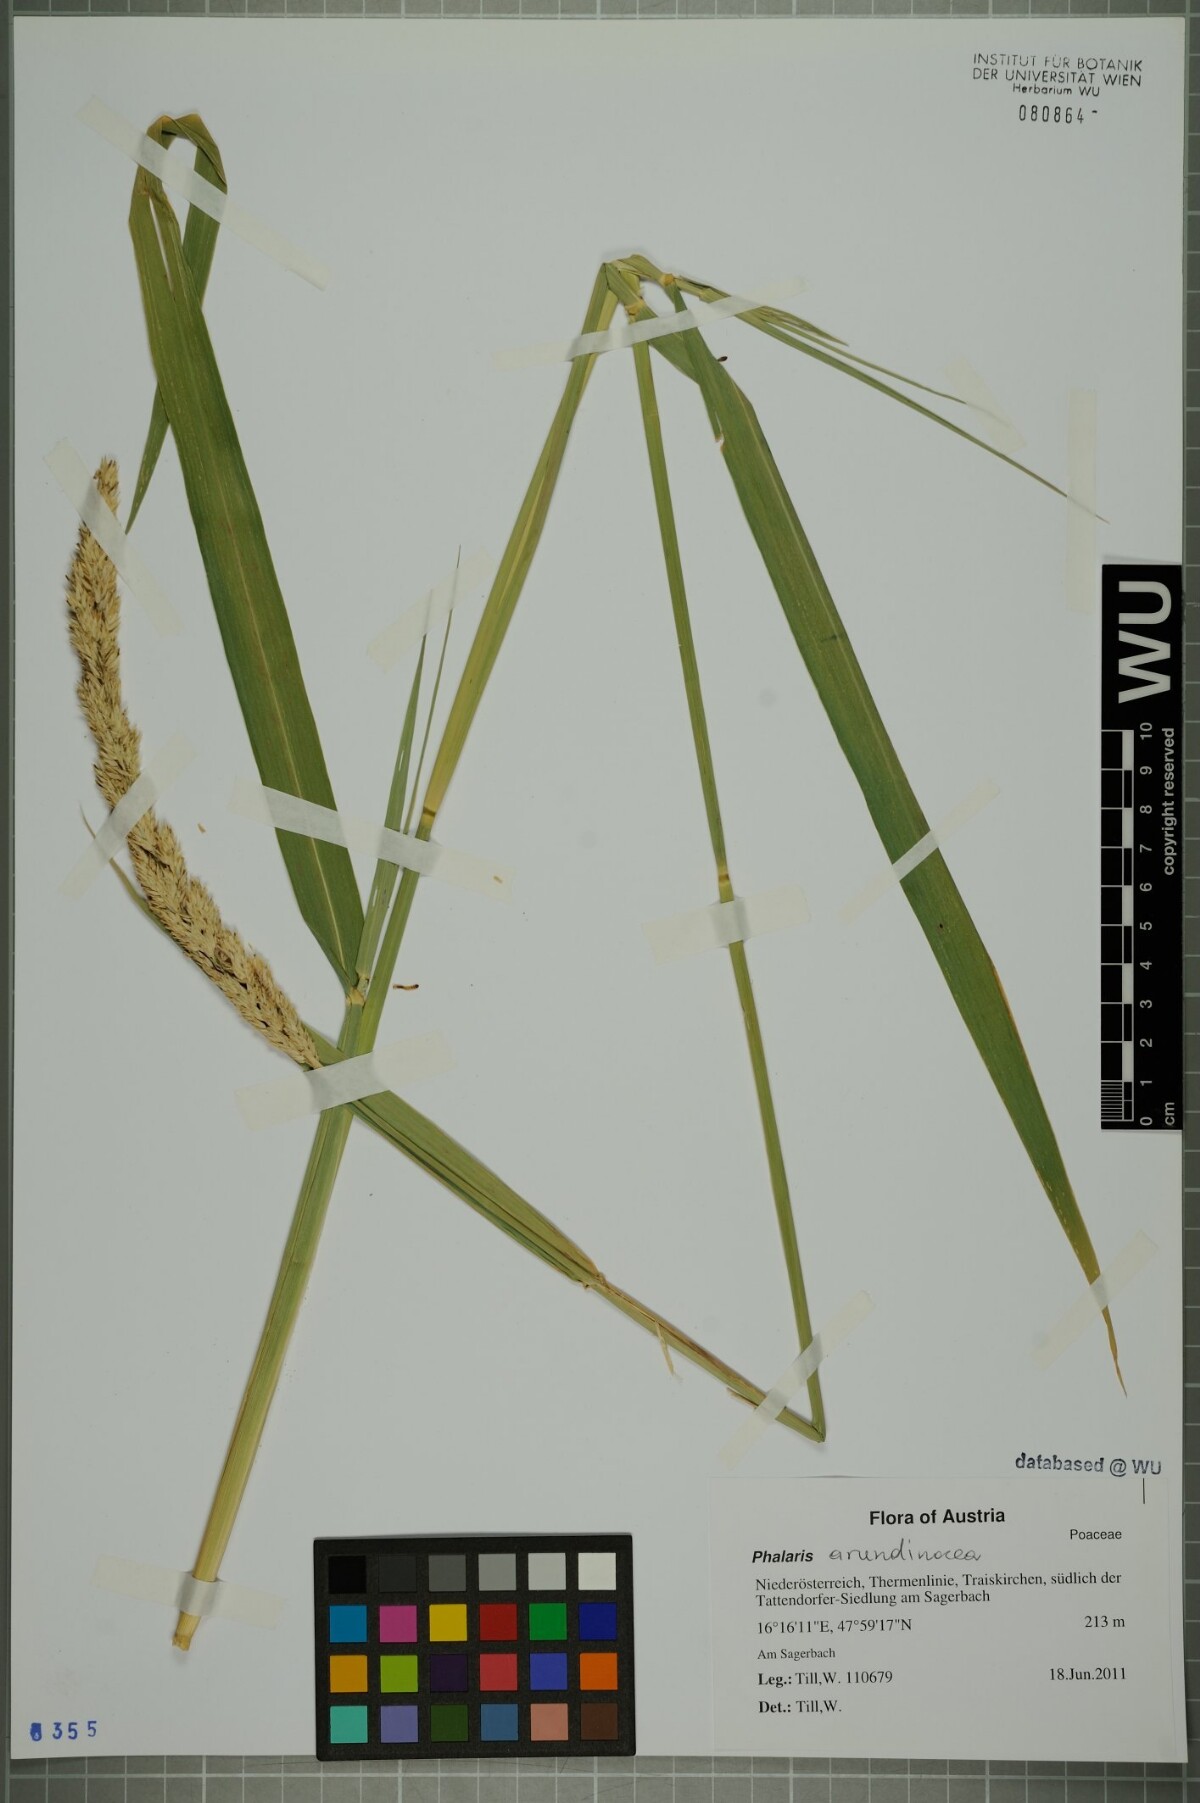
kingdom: Plantae
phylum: Tracheophyta
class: Liliopsida
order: Poales
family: Poaceae
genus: Phalaris
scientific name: Phalaris arundinacea
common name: Reed canary-grass
